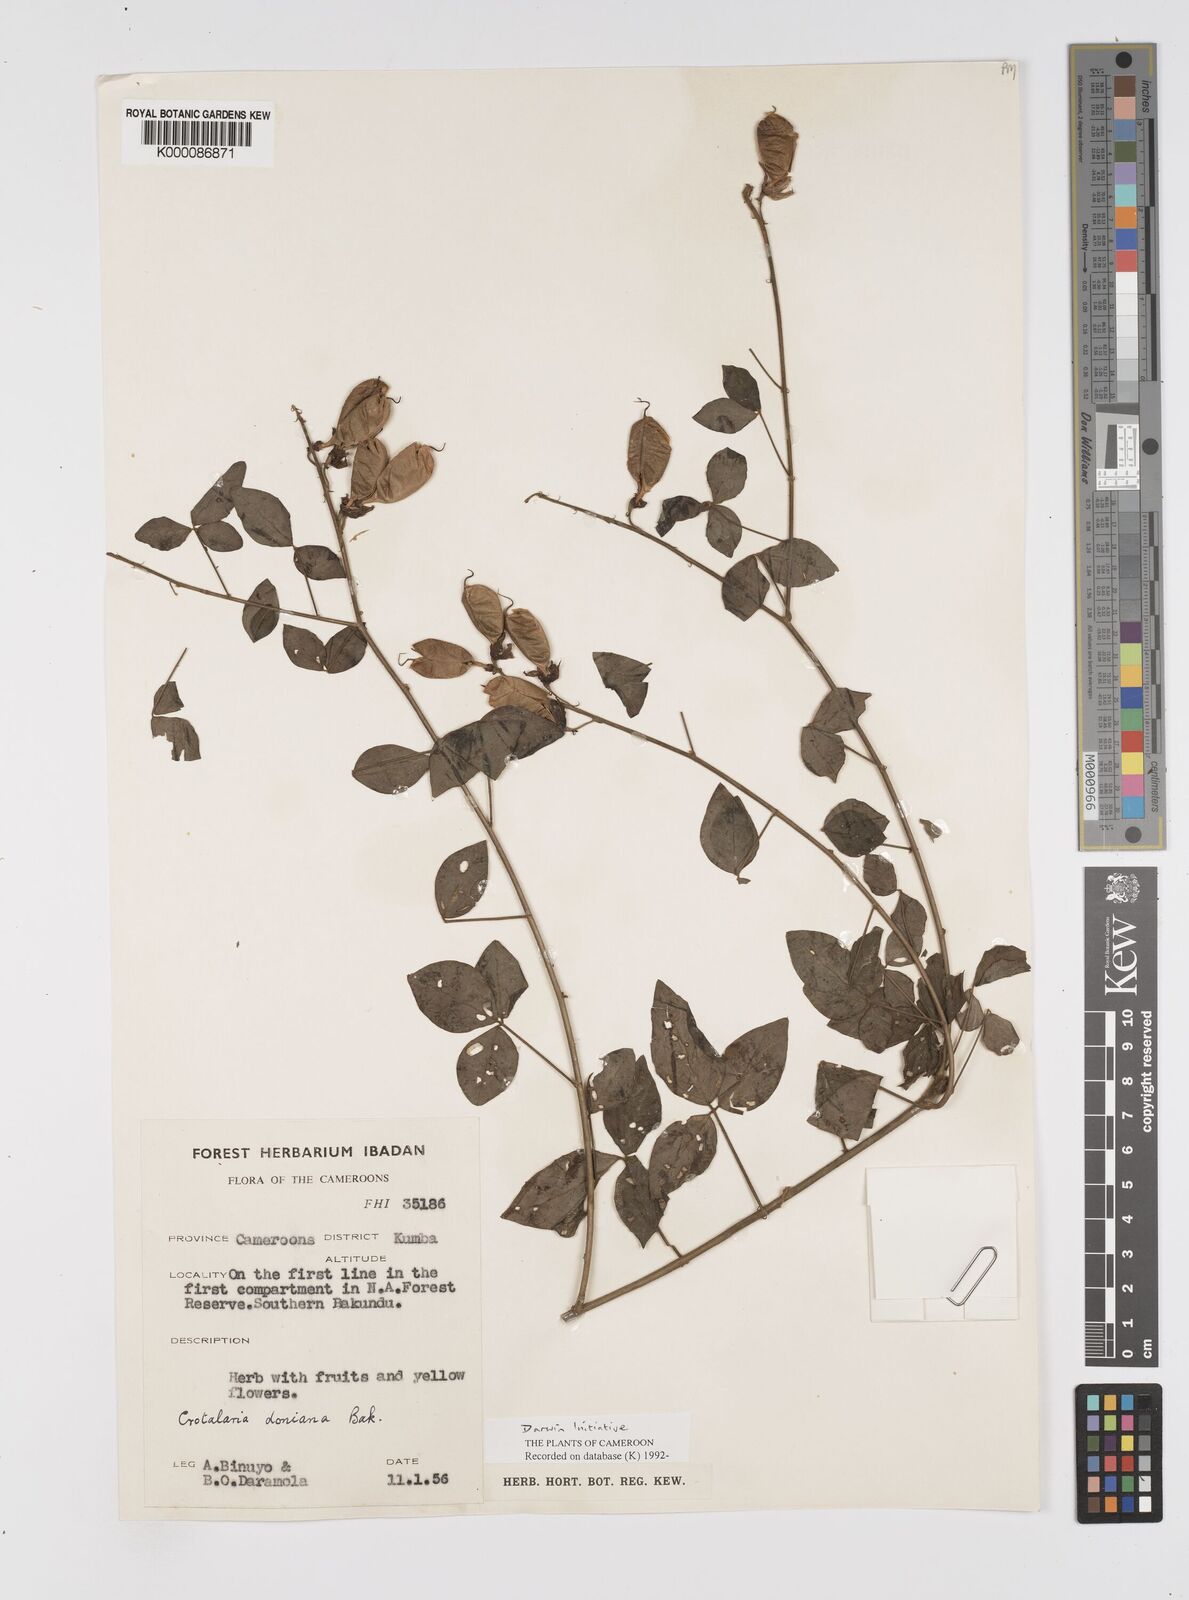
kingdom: Plantae
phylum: Tracheophyta
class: Magnoliopsida
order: Fabales
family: Fabaceae
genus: Crotalaria
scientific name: Crotalaria doniana
